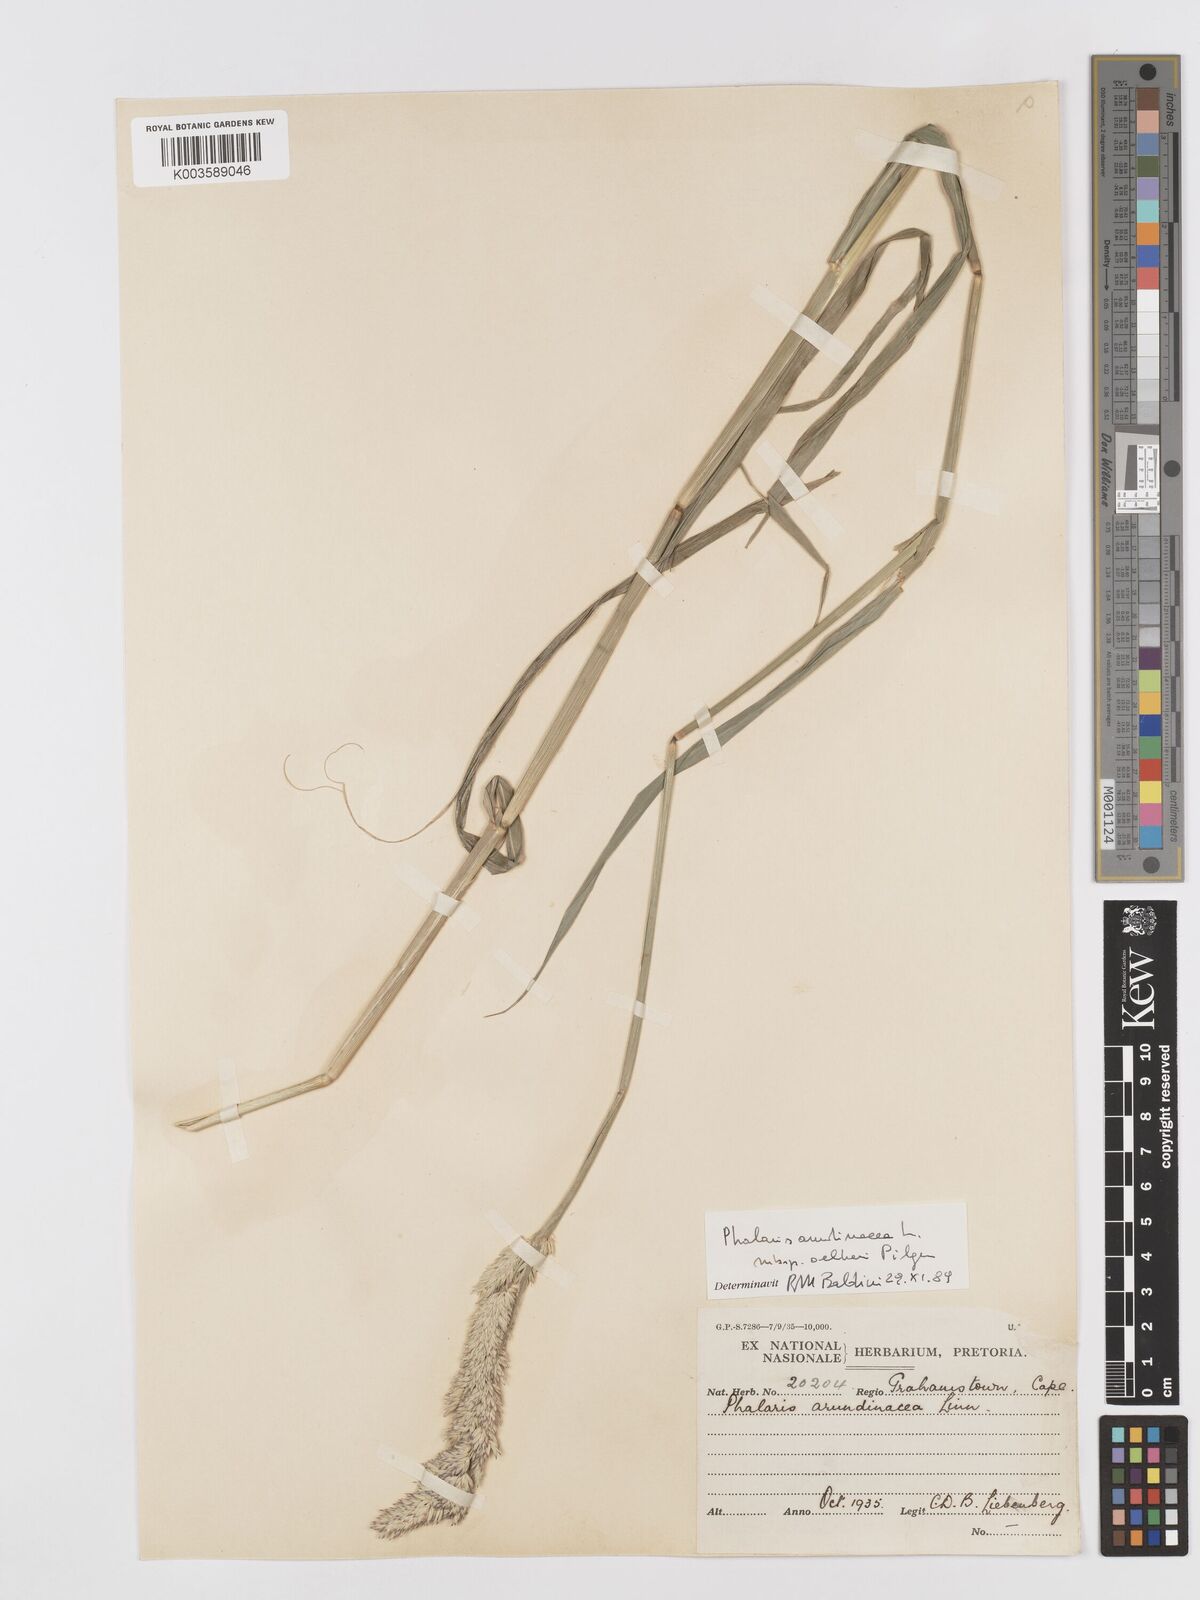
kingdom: Plantae
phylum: Tracheophyta
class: Liliopsida
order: Poales
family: Poaceae
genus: Phalaris
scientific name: Phalaris arundinacea
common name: Reed canary-grass
